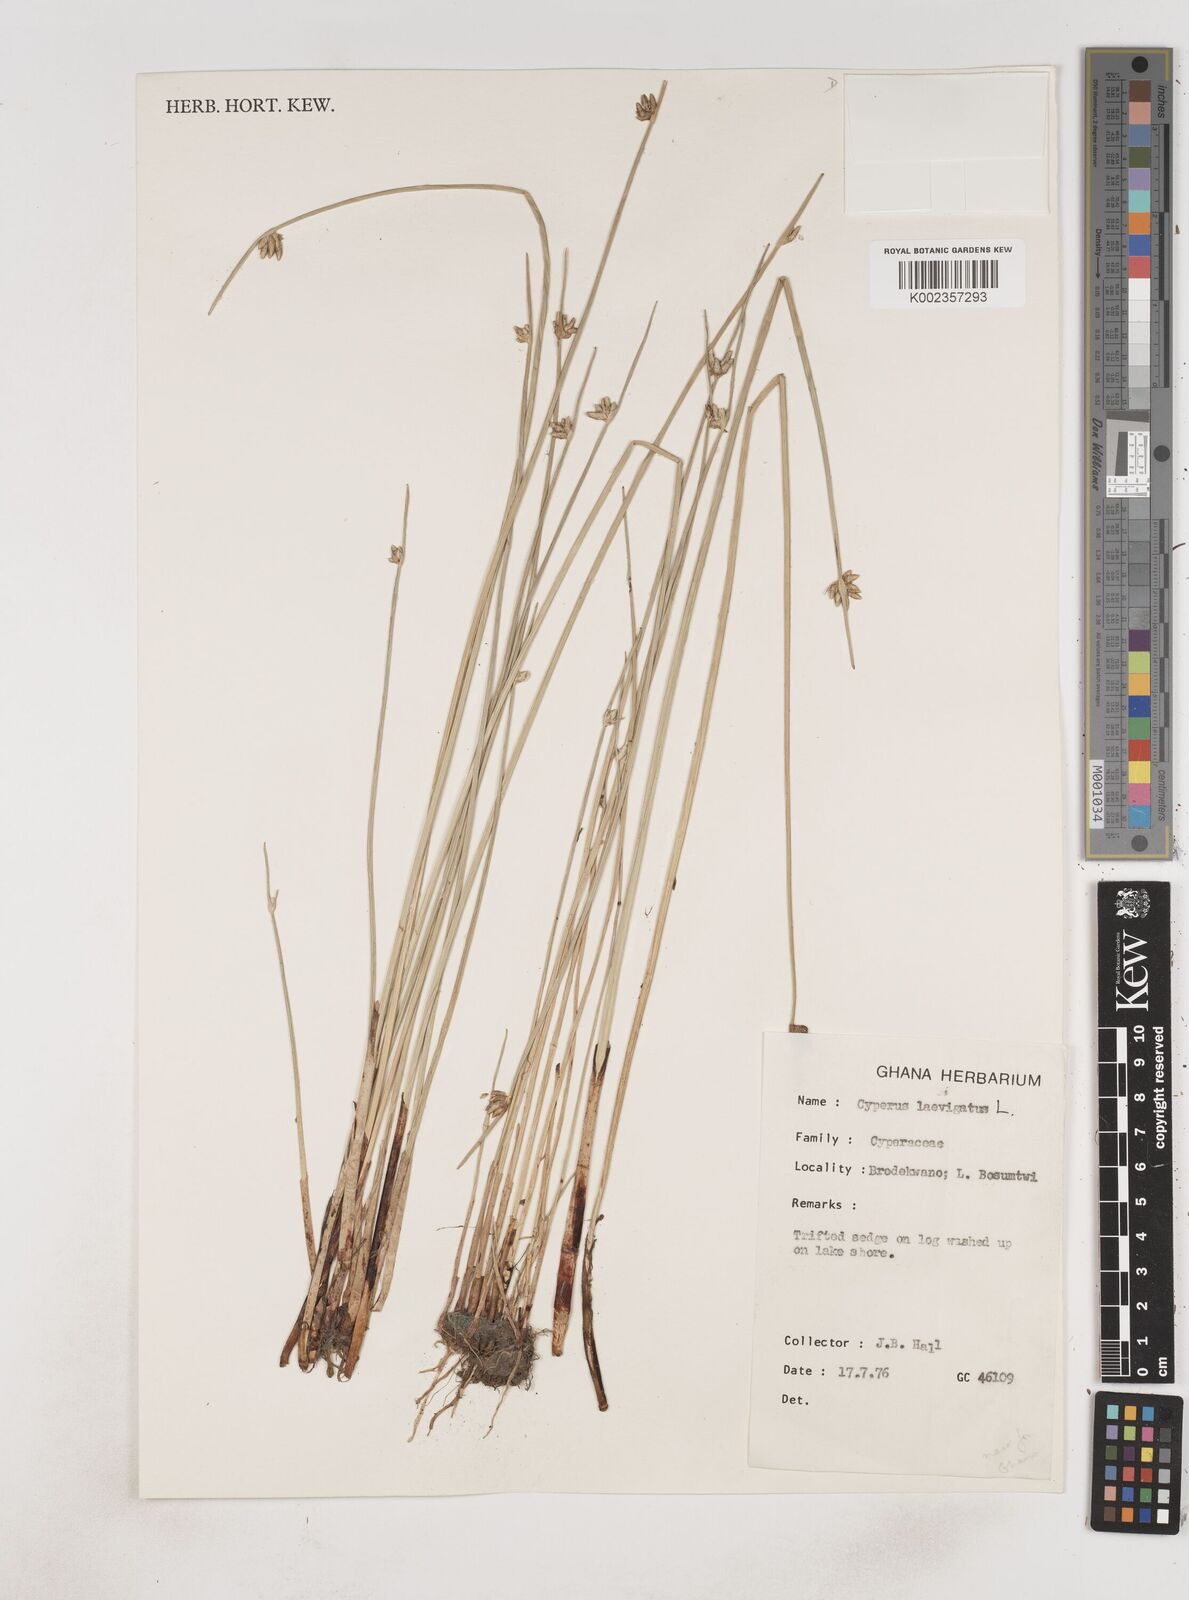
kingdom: Plantae
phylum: Tracheophyta
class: Liliopsida
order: Poales
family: Cyperaceae
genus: Cyperus
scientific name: Cyperus laevigatus
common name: Smooth flat sedge
